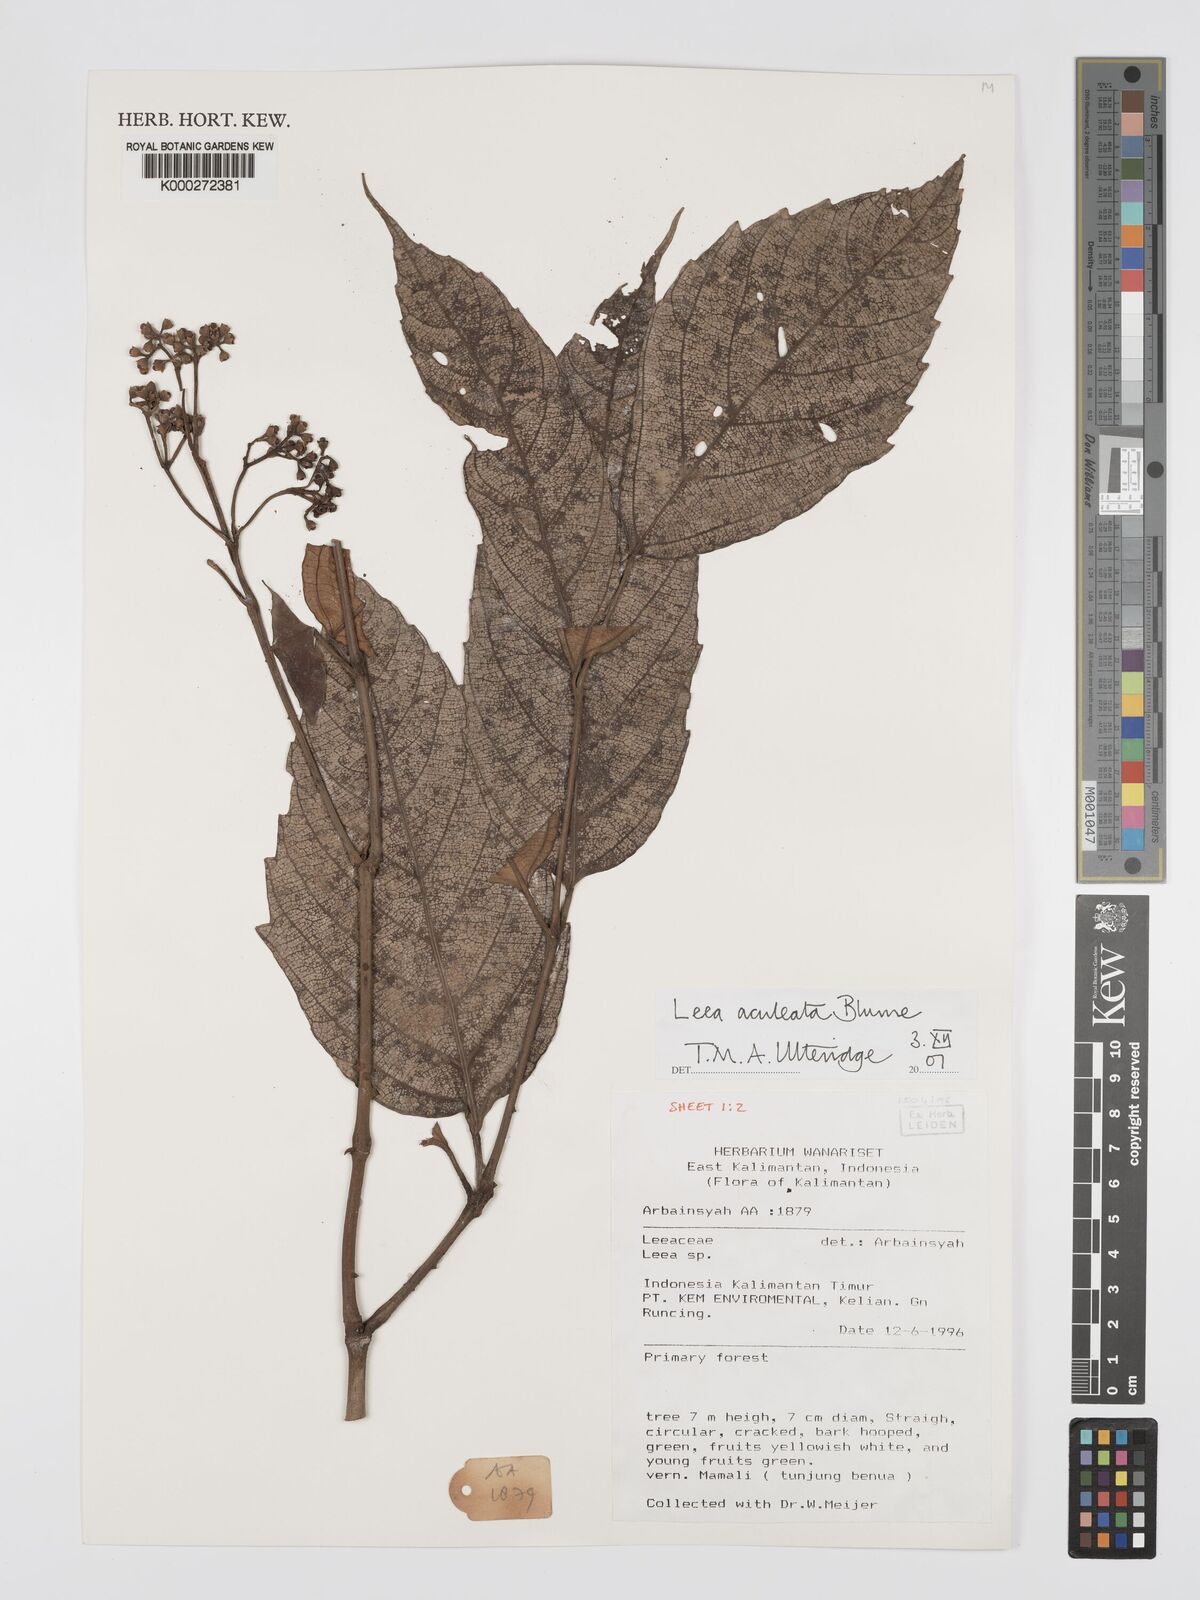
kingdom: Plantae
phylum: Tracheophyta
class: Magnoliopsida
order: Vitales
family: Vitaceae
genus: Leea
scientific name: Leea aculeata
